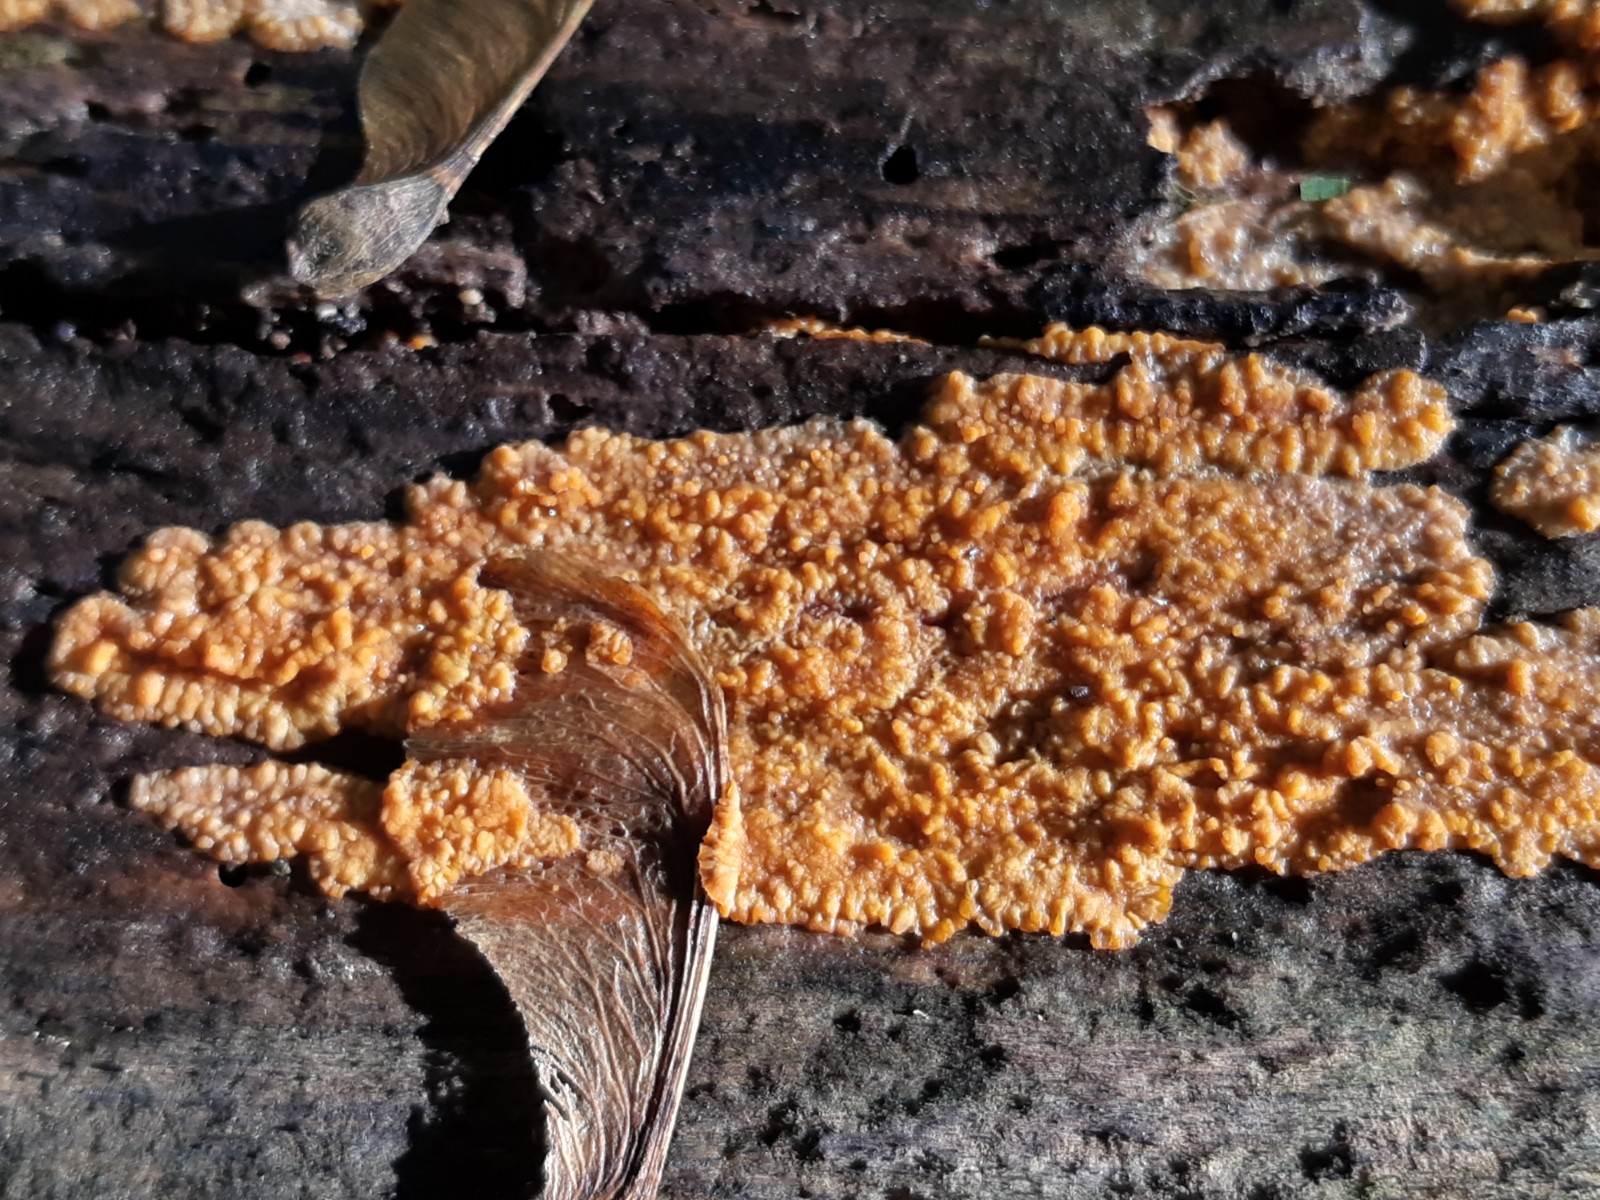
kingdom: Fungi
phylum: Basidiomycota
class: Agaricomycetes
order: Polyporales
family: Meruliaceae
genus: Phlebia
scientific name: Phlebia radiata
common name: stråle-åresvamp
